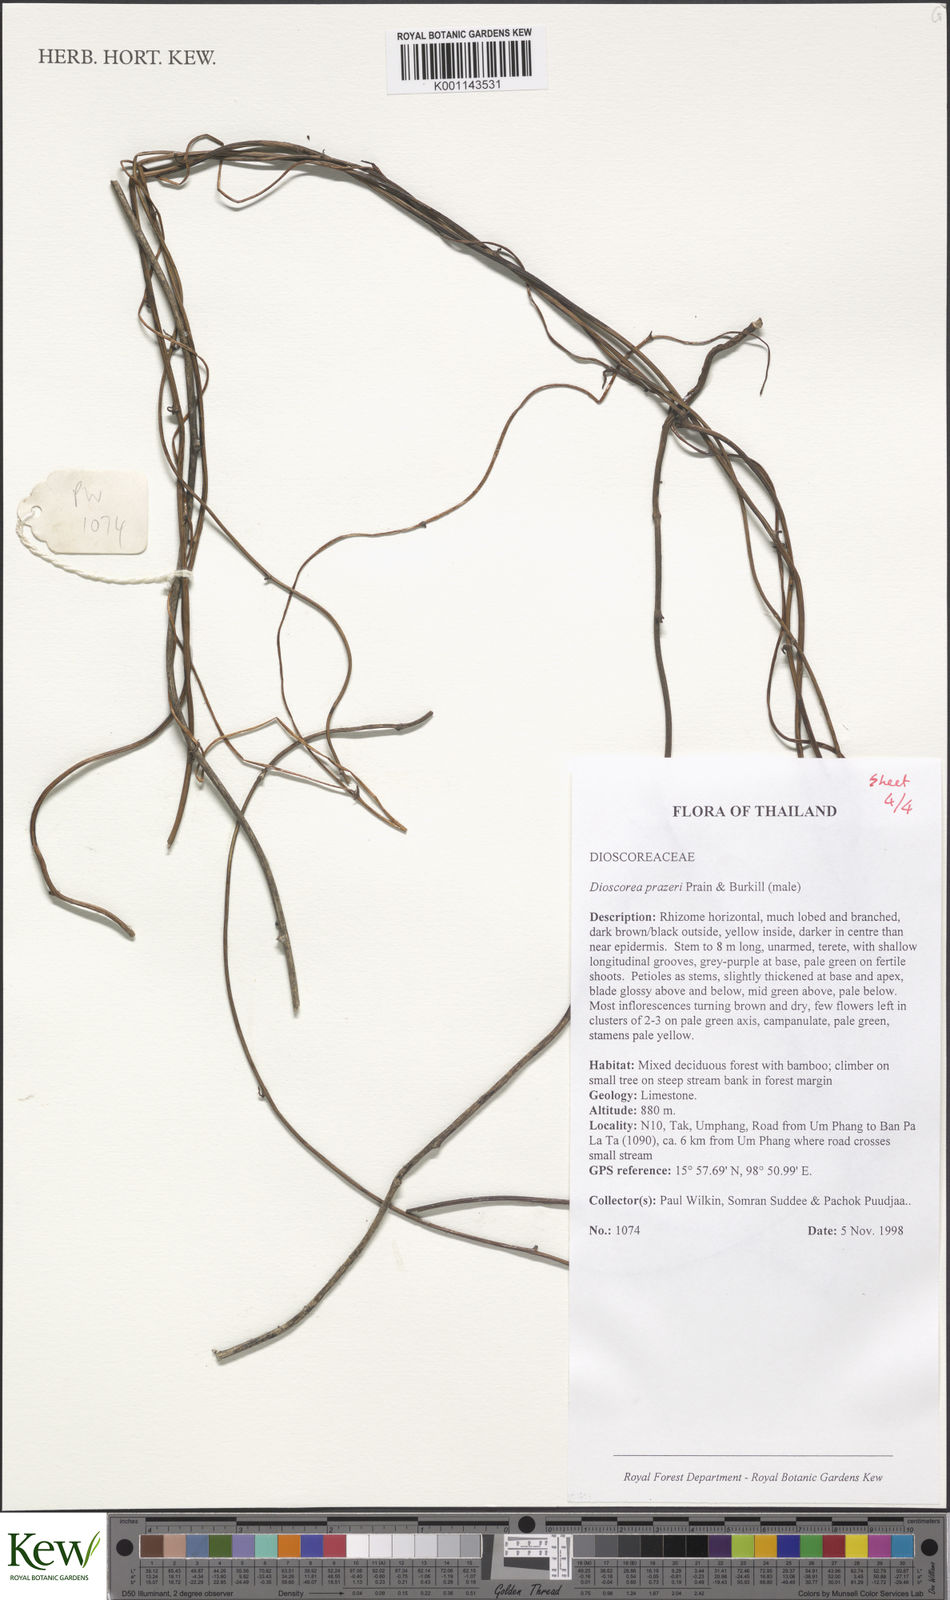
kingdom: Plantae
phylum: Tracheophyta
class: Liliopsida
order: Dioscoreales
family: Dioscoreaceae
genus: Dioscorea
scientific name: Dioscorea prazeri
